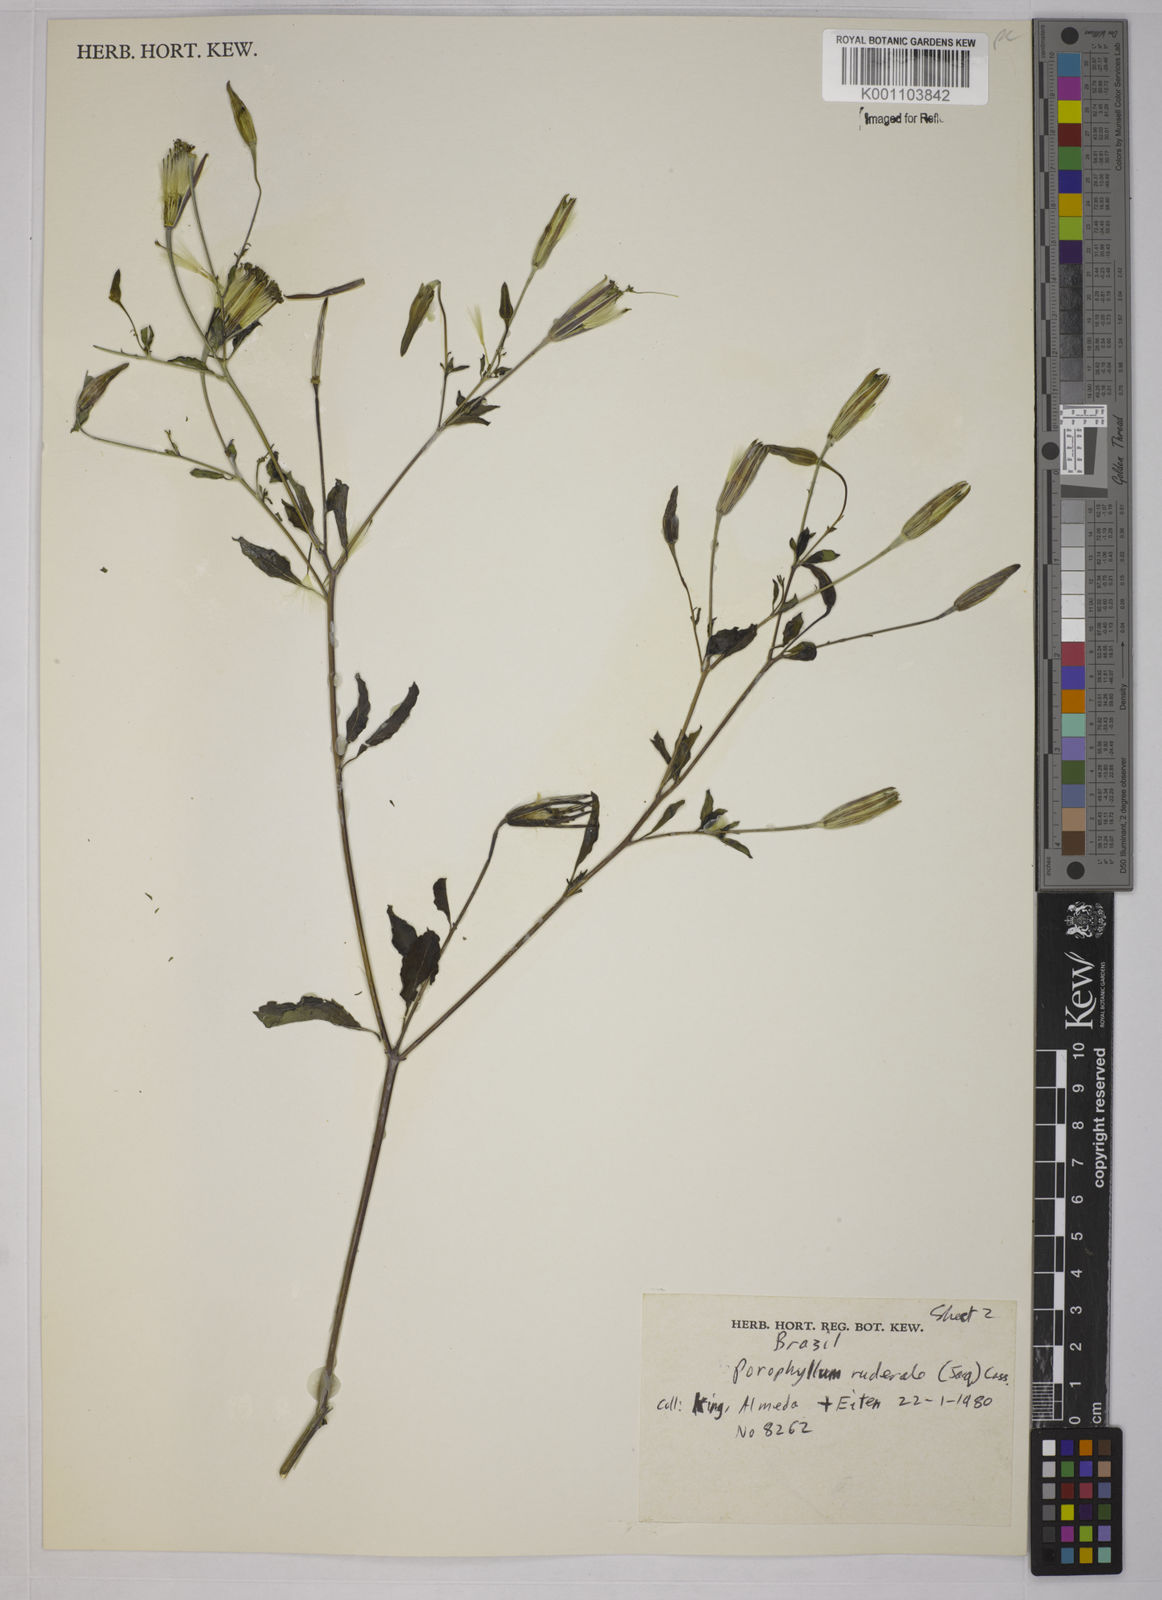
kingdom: Plantae
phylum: Tracheophyta
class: Magnoliopsida
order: Asterales
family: Asteraceae
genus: Porophyllum
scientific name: Porophyllum ruderale
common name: Yerba porosa
